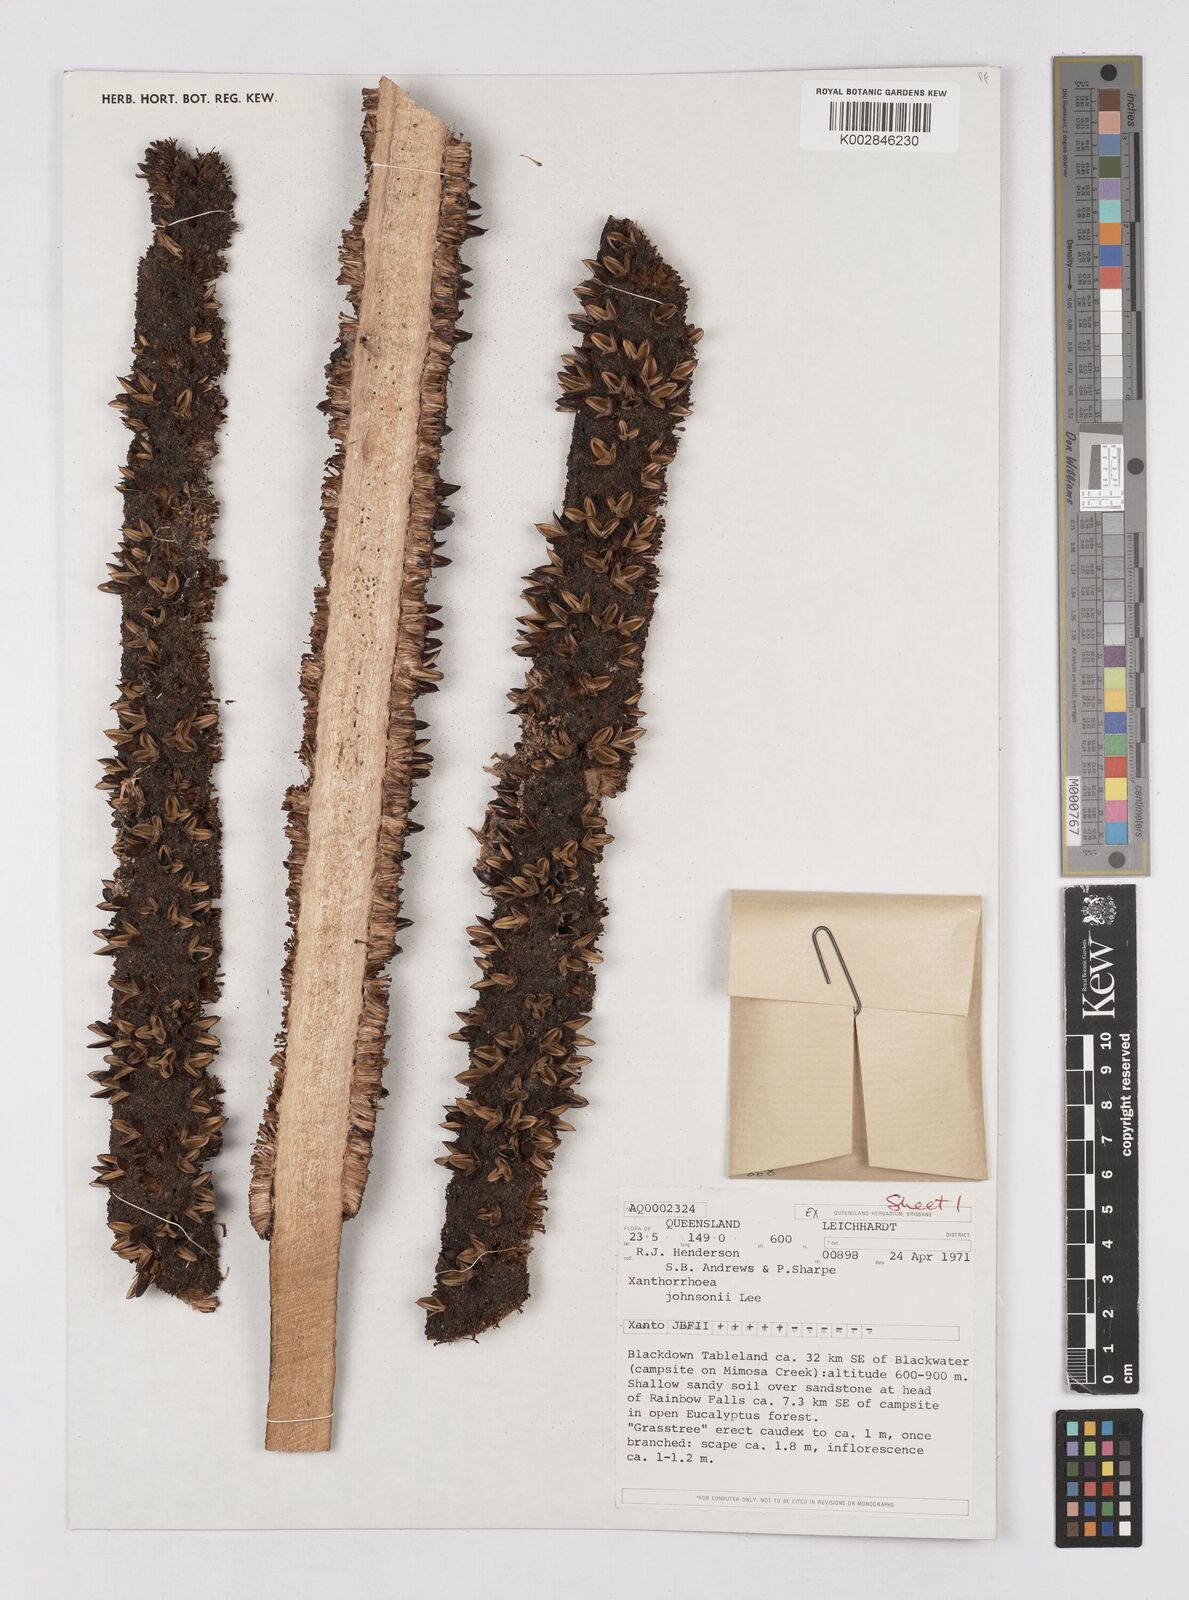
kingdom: Plantae
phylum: Tracheophyta
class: Liliopsida
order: Asparagales
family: Asphodelaceae
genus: Xanthorrhoea
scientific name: Xanthorrhoea johnsonii
